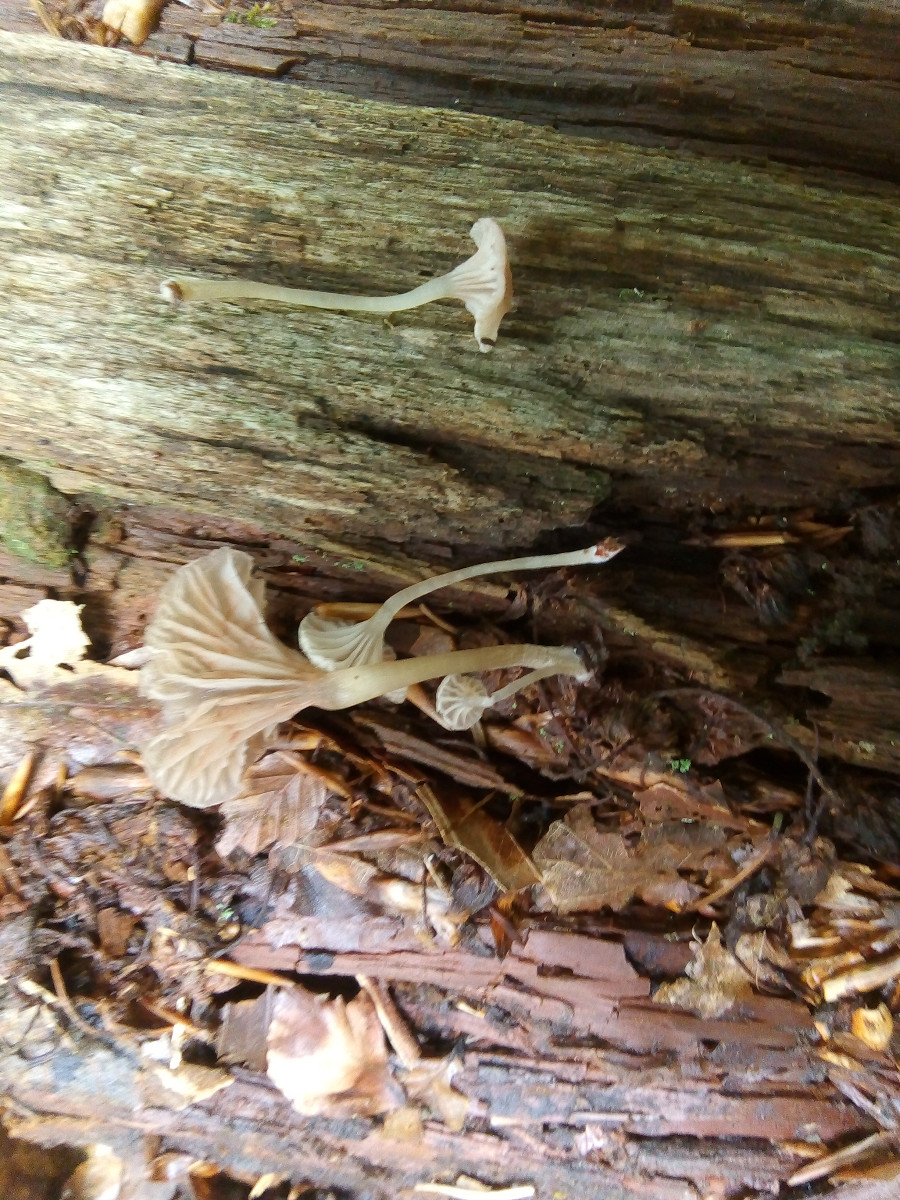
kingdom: Fungi
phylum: Basidiomycota
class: Agaricomycetes
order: Agaricales
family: Entolomataceae
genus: Entoloma
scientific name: Entoloma rhodocylix
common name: fjernbladet rødblad
